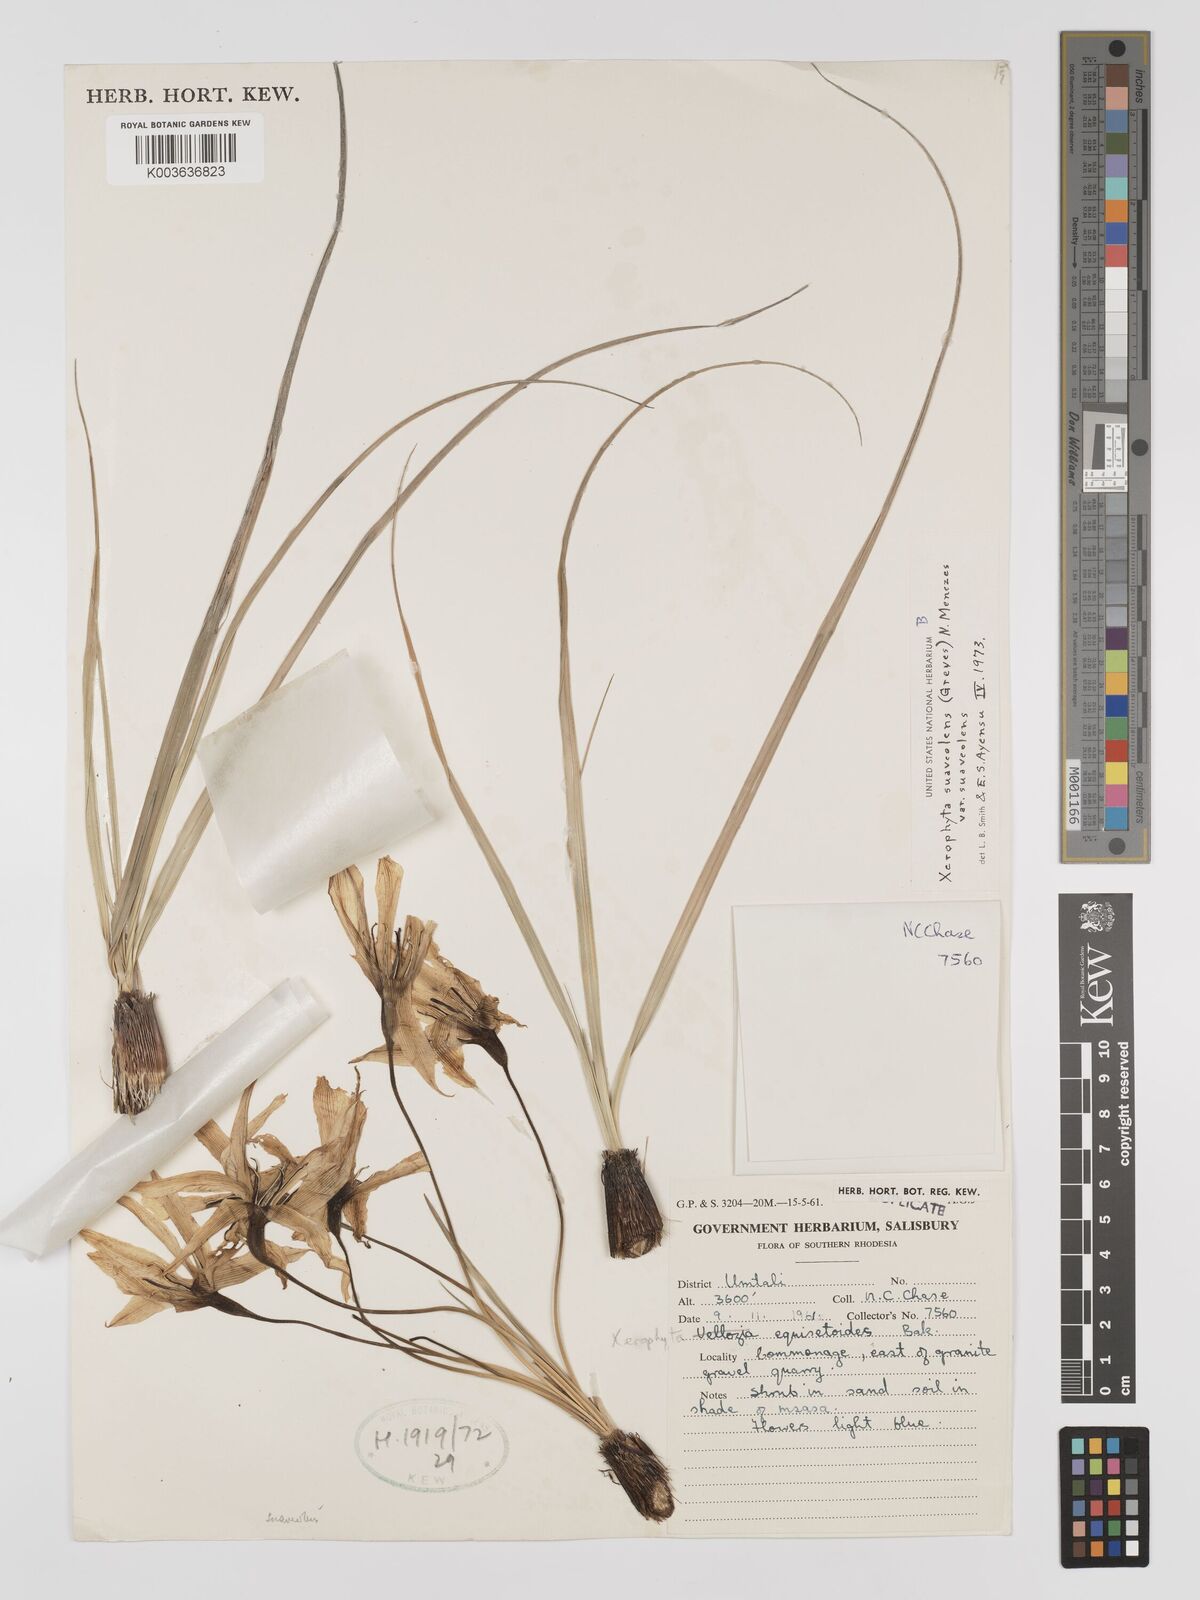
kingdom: Plantae
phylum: Tracheophyta
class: Liliopsida
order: Pandanales
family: Velloziaceae
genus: Xerophyta
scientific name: Xerophyta suaveolens
